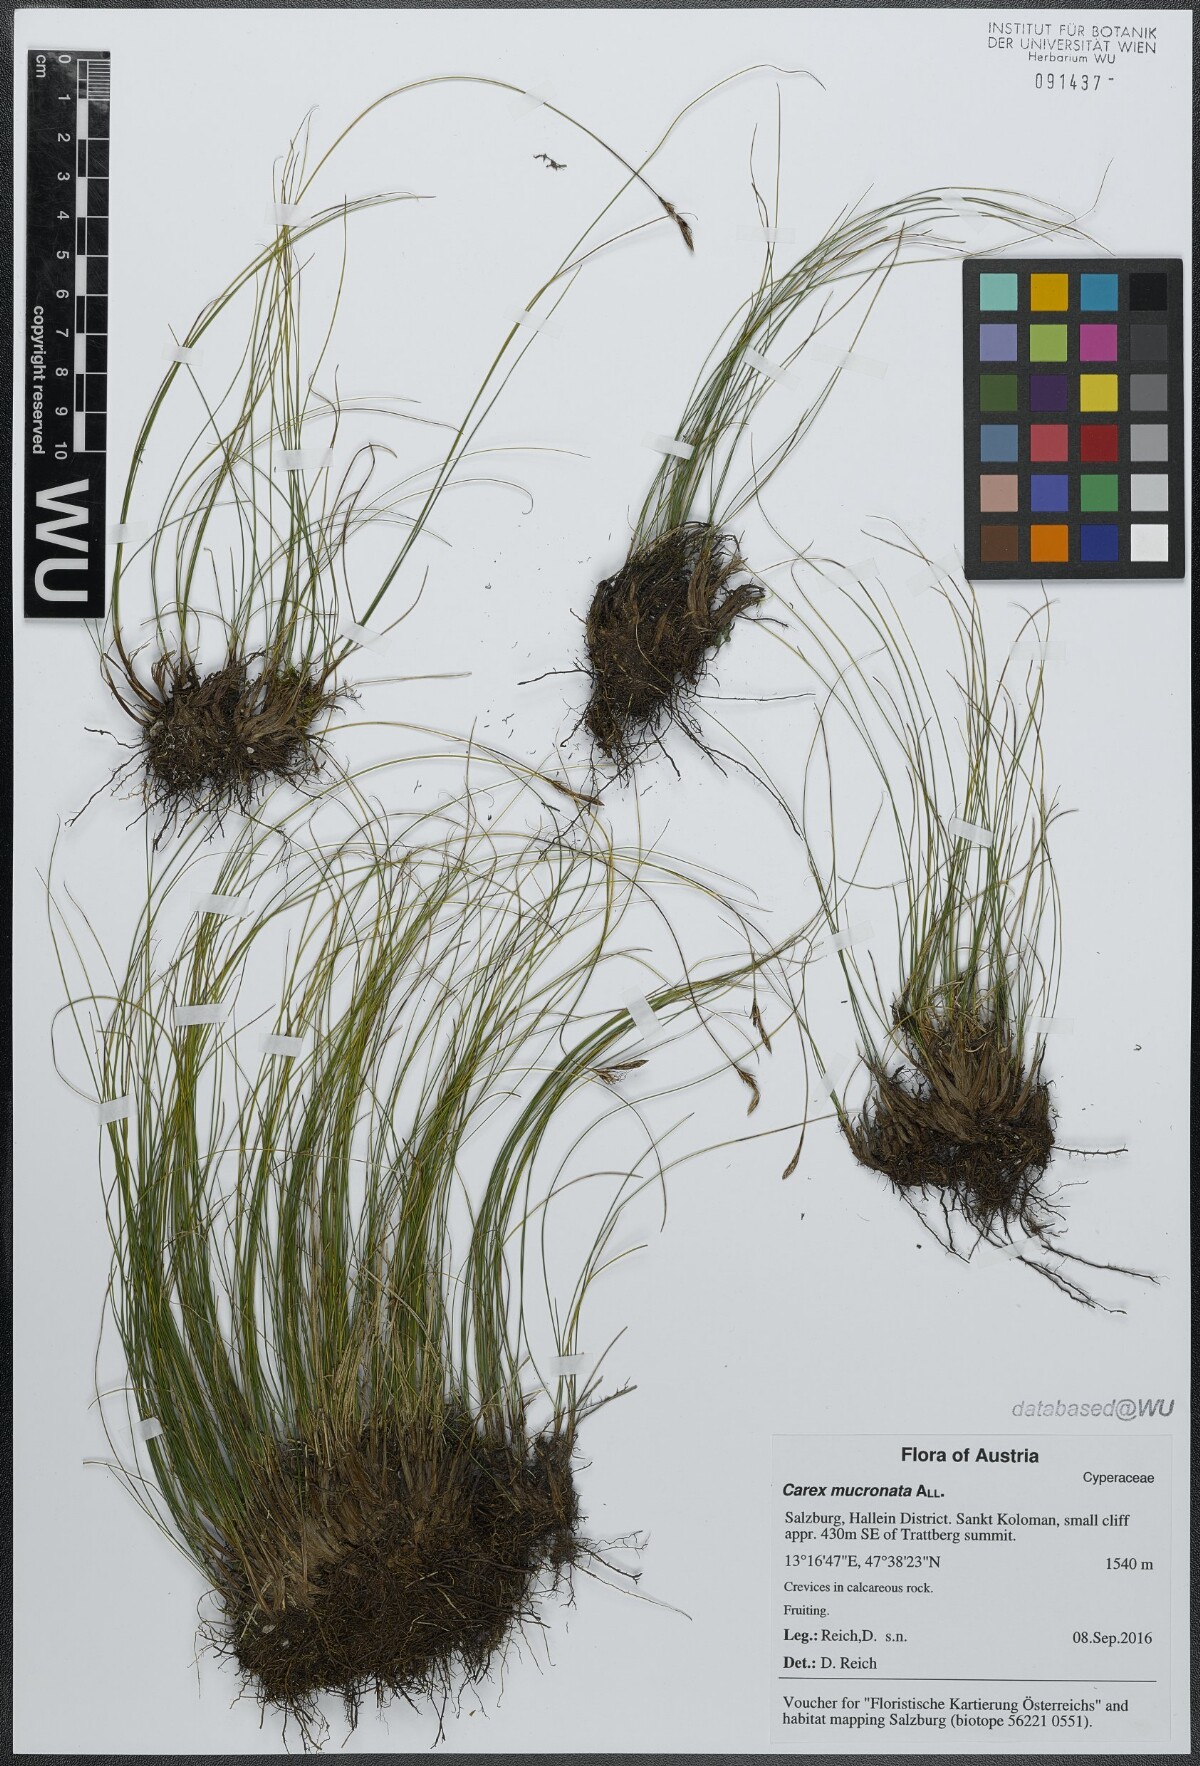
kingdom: Plantae
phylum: Tracheophyta
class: Liliopsida
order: Poales
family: Cyperaceae
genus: Carex
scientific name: Carex mucronata
